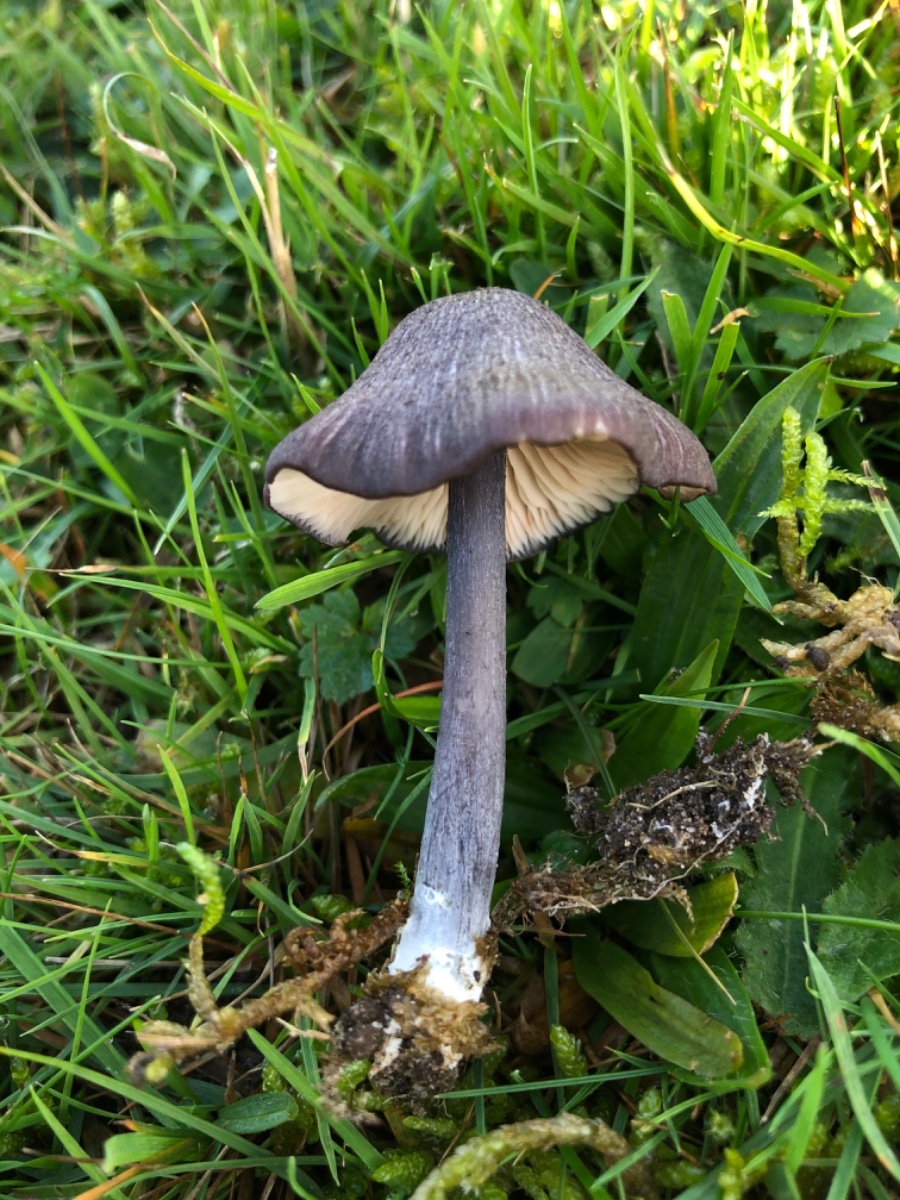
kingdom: Fungi
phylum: Basidiomycota
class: Agaricomycetes
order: Agaricales
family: Entolomataceae
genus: Entoloma
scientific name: Entoloma viiduense
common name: purpurbrun rødblad
